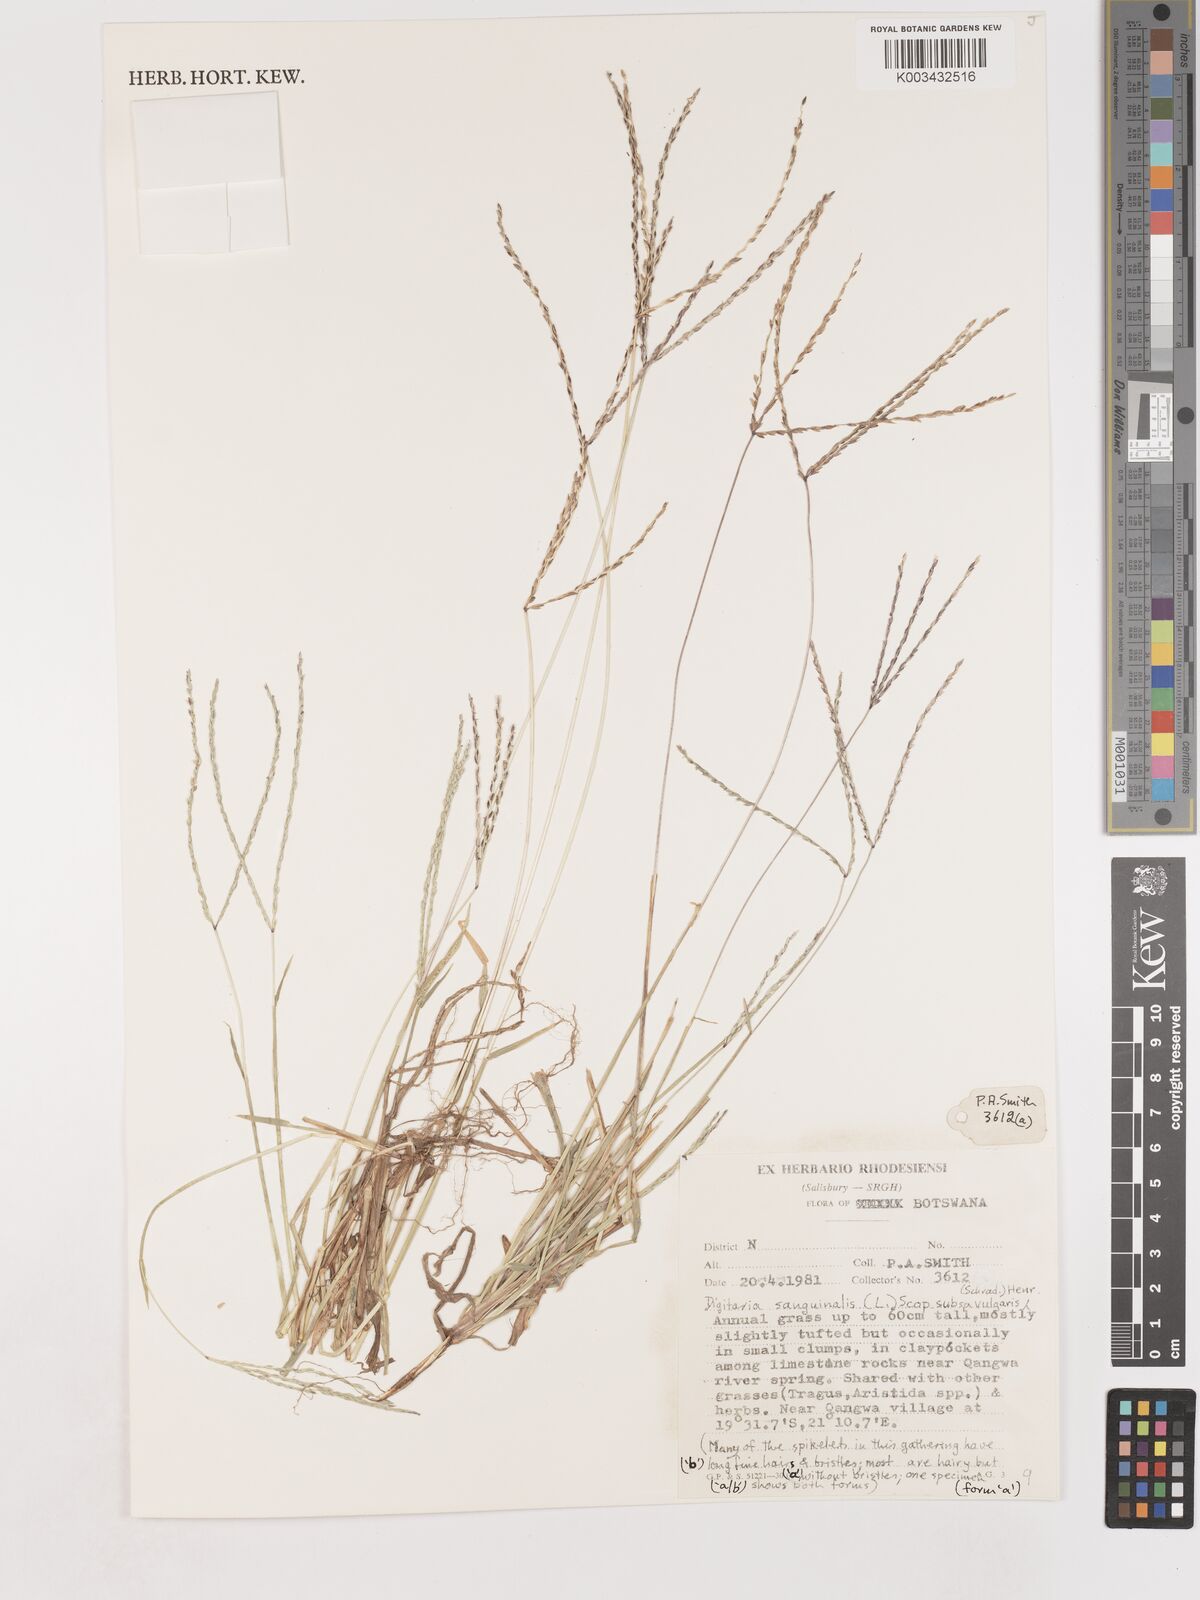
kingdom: Plantae
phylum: Tracheophyta
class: Liliopsida
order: Poales
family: Poaceae
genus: Digitaria
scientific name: Digitaria sanguinalis
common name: Hairy crabgrass
